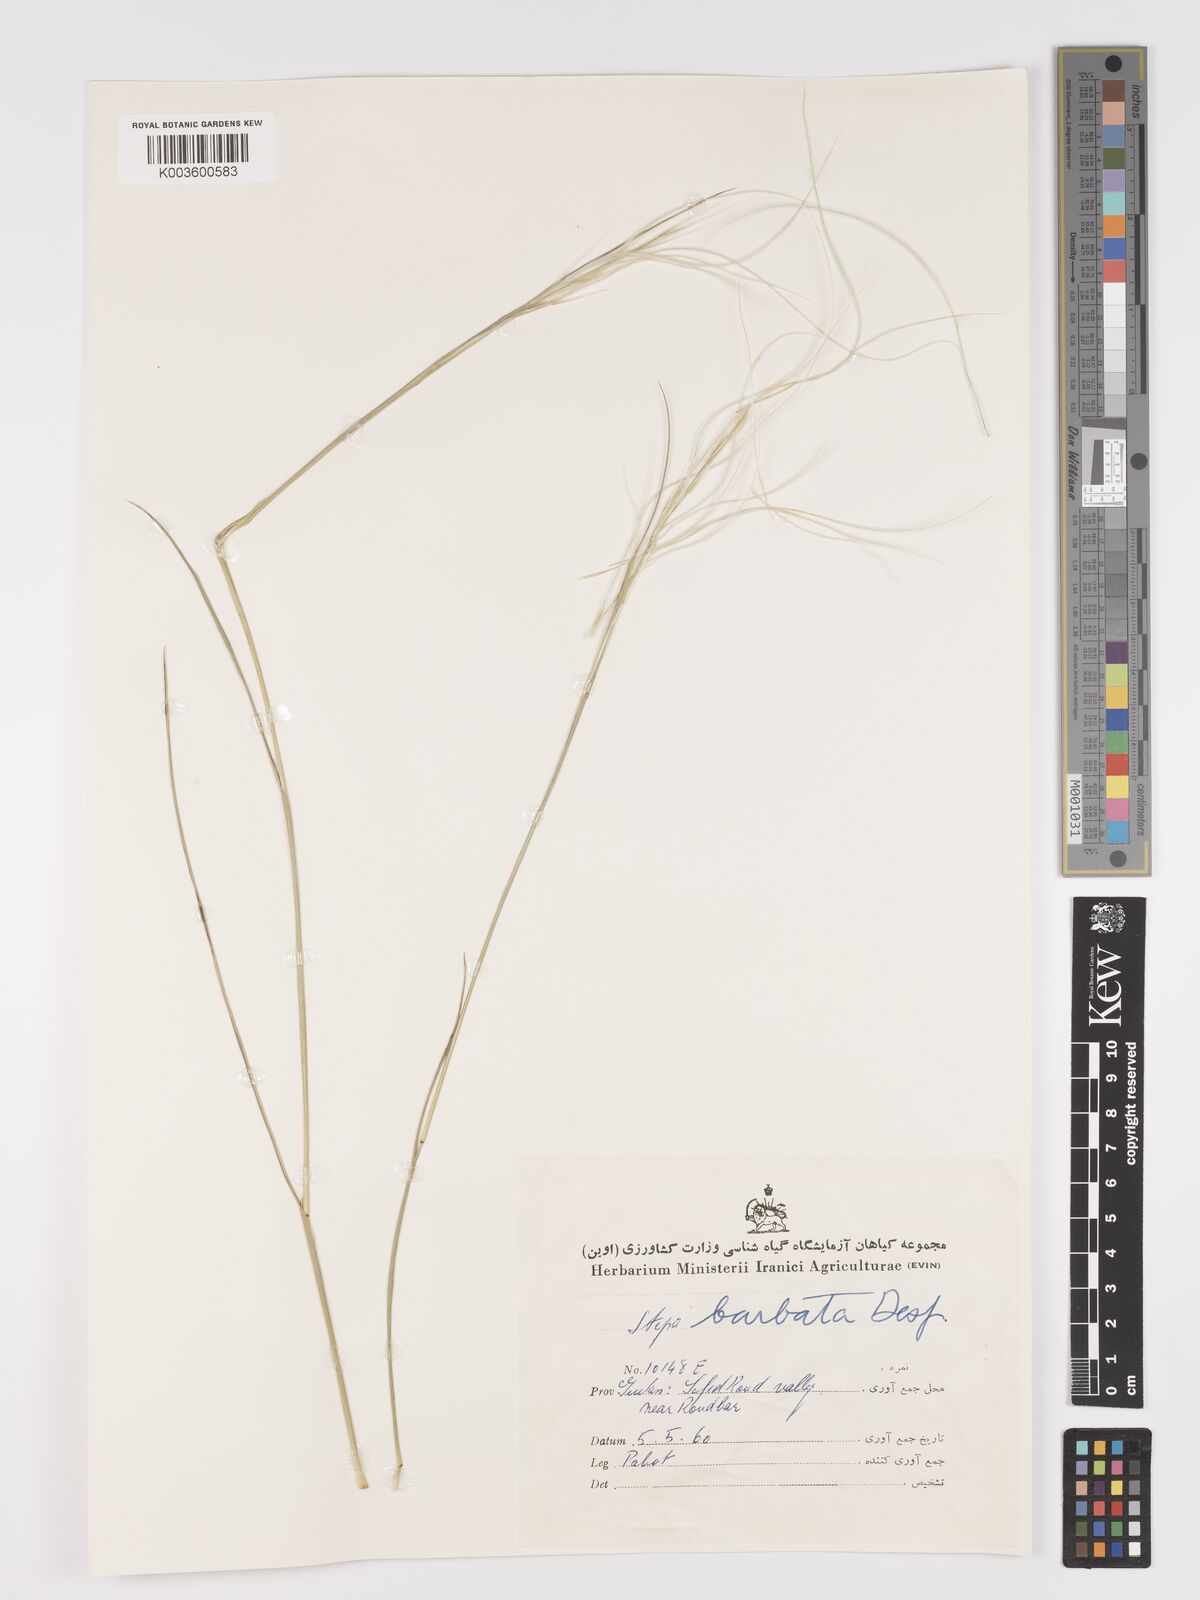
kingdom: Plantae
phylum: Tracheophyta
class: Liliopsida
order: Poales
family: Poaceae
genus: Stipa
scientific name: Stipa barbata
